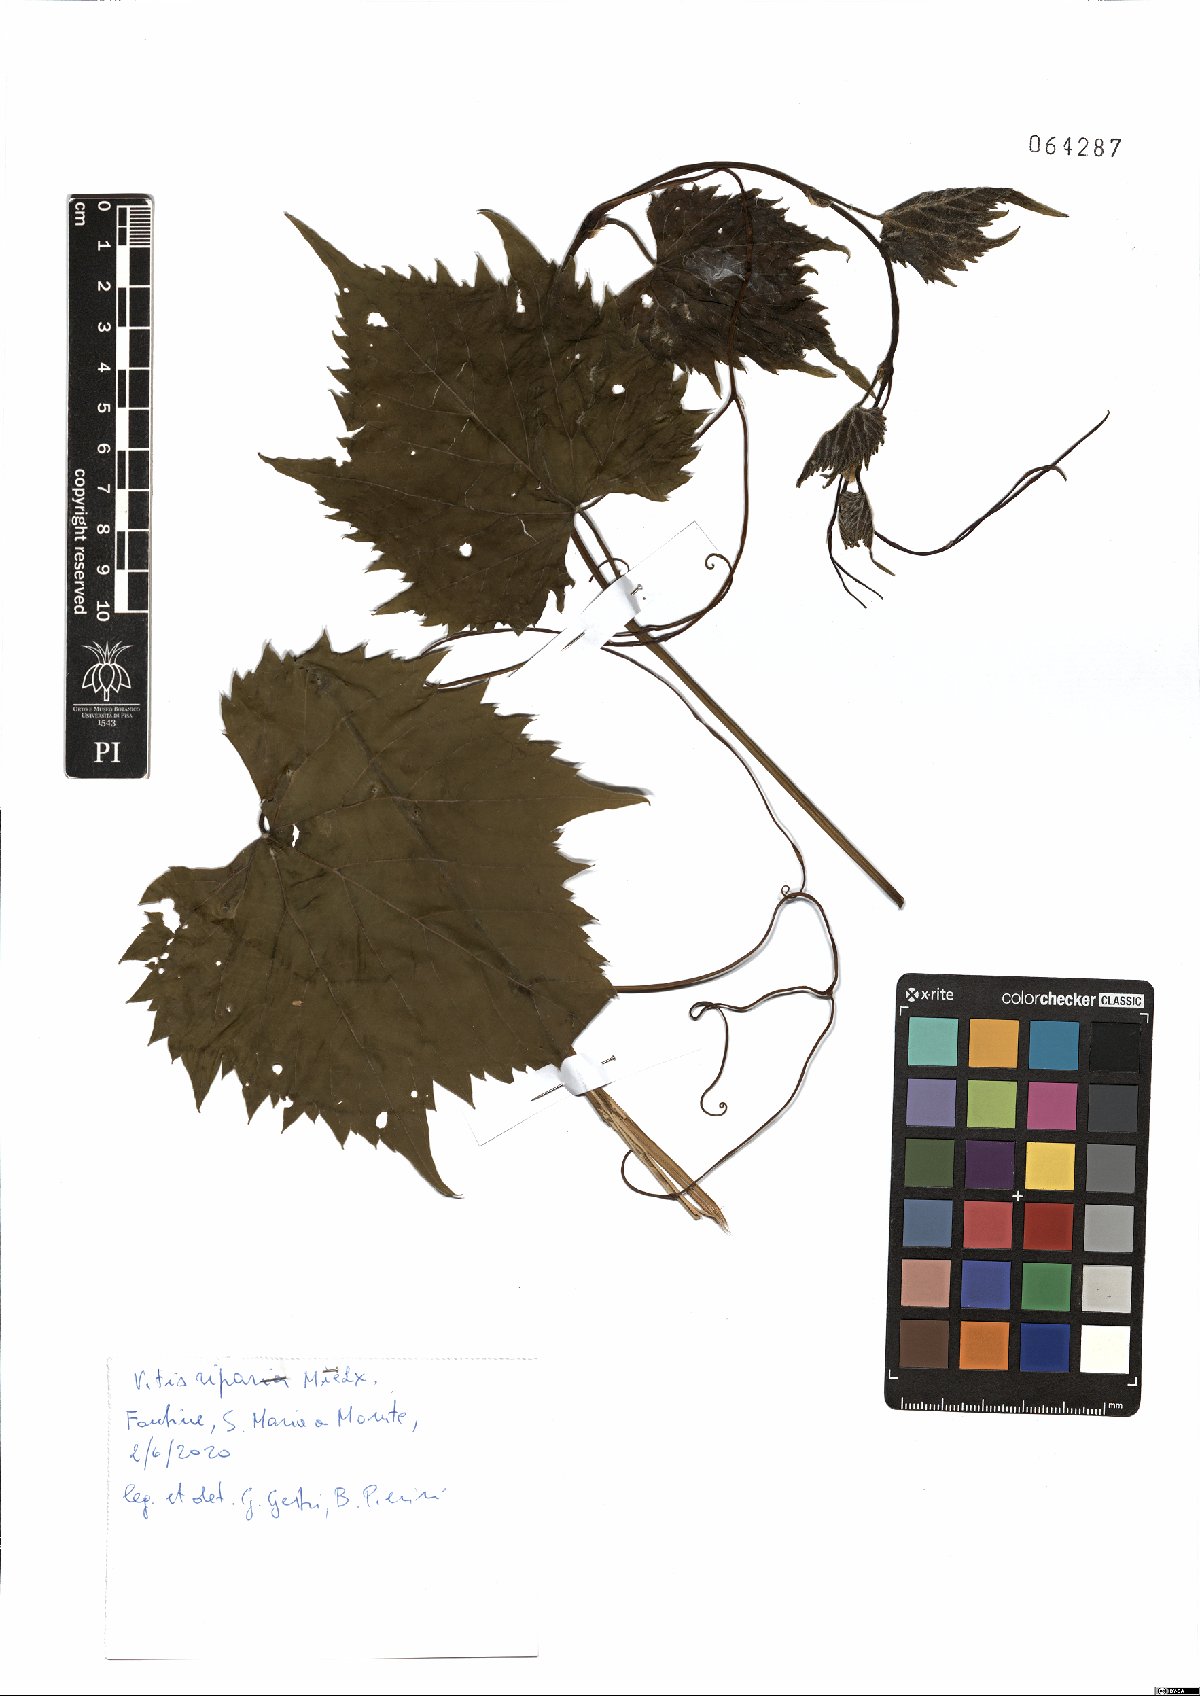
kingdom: Plantae
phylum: Tracheophyta
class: Magnoliopsida
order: Vitales
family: Vitaceae
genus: Vitis
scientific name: Vitis riparia
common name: Frost grape
